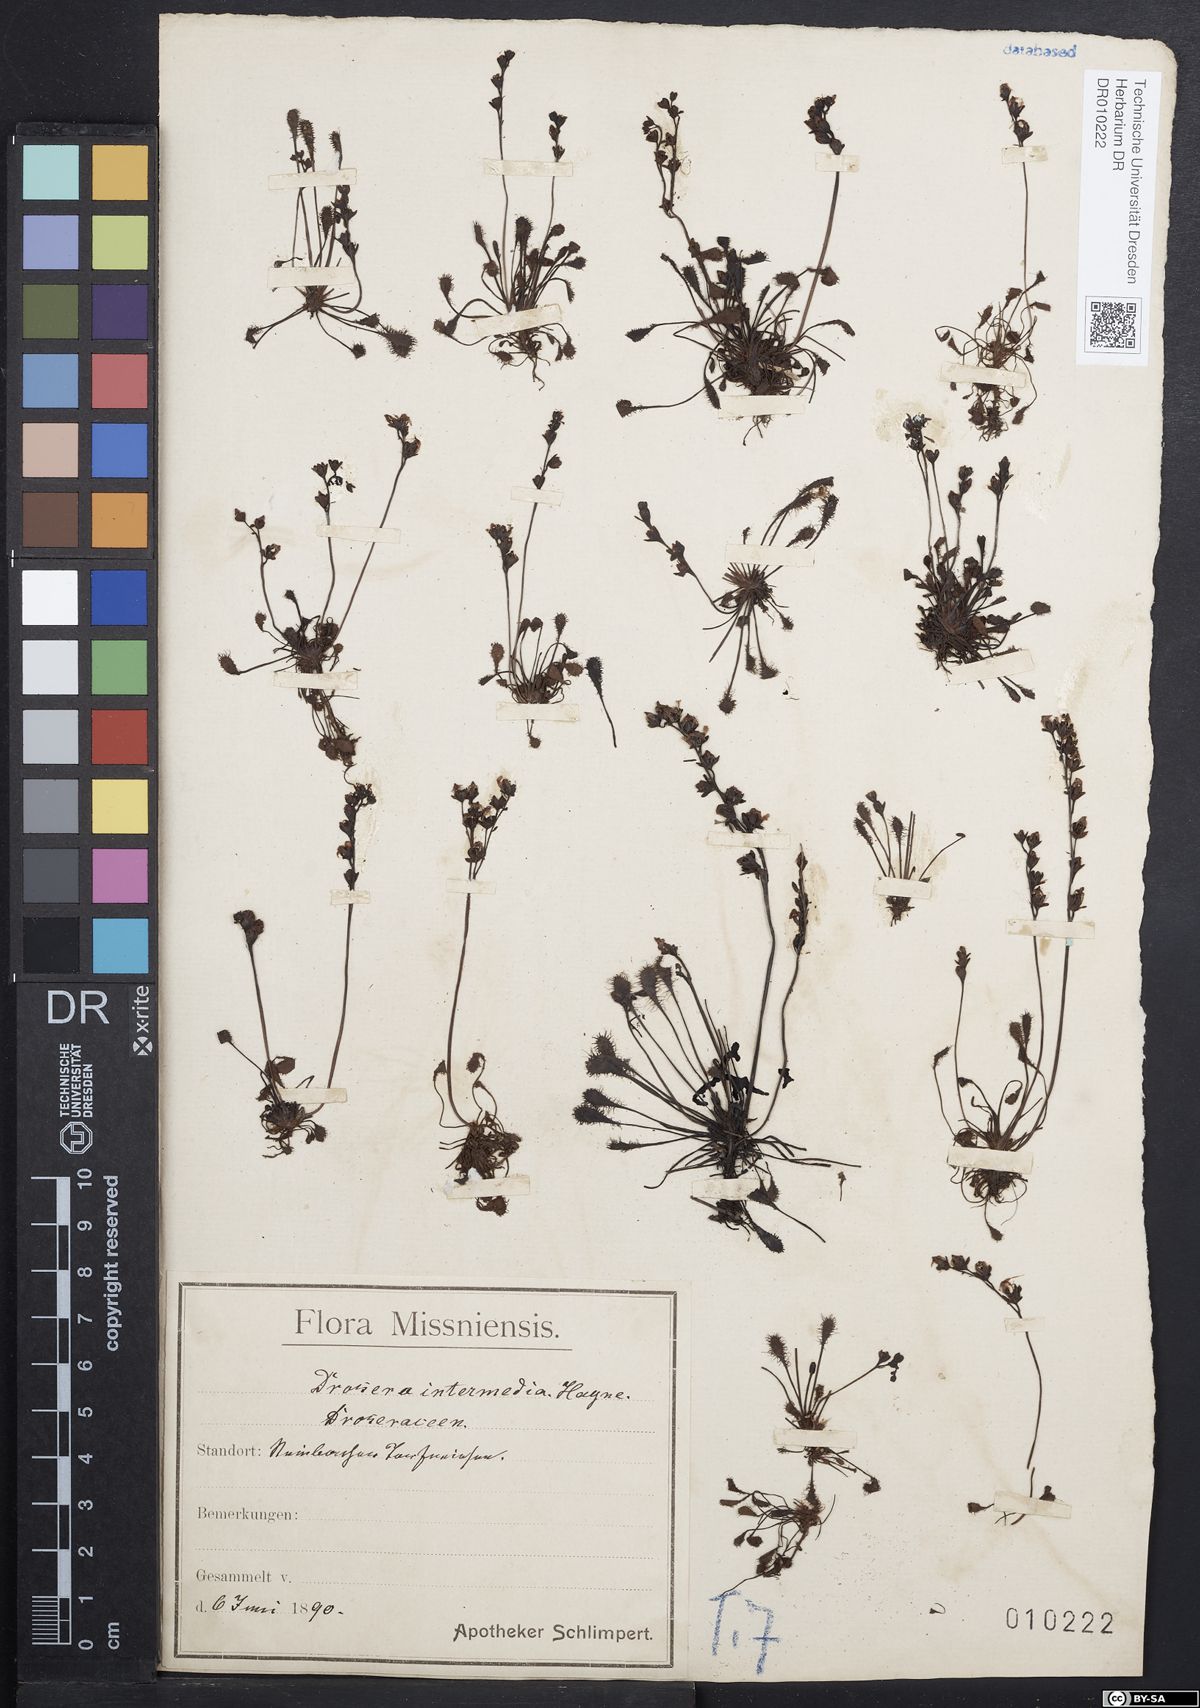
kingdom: Plantae
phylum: Tracheophyta
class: Magnoliopsida
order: Caryophyllales
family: Droseraceae
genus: Drosera
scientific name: Drosera intermedia
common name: Oblong-leaved sundew
